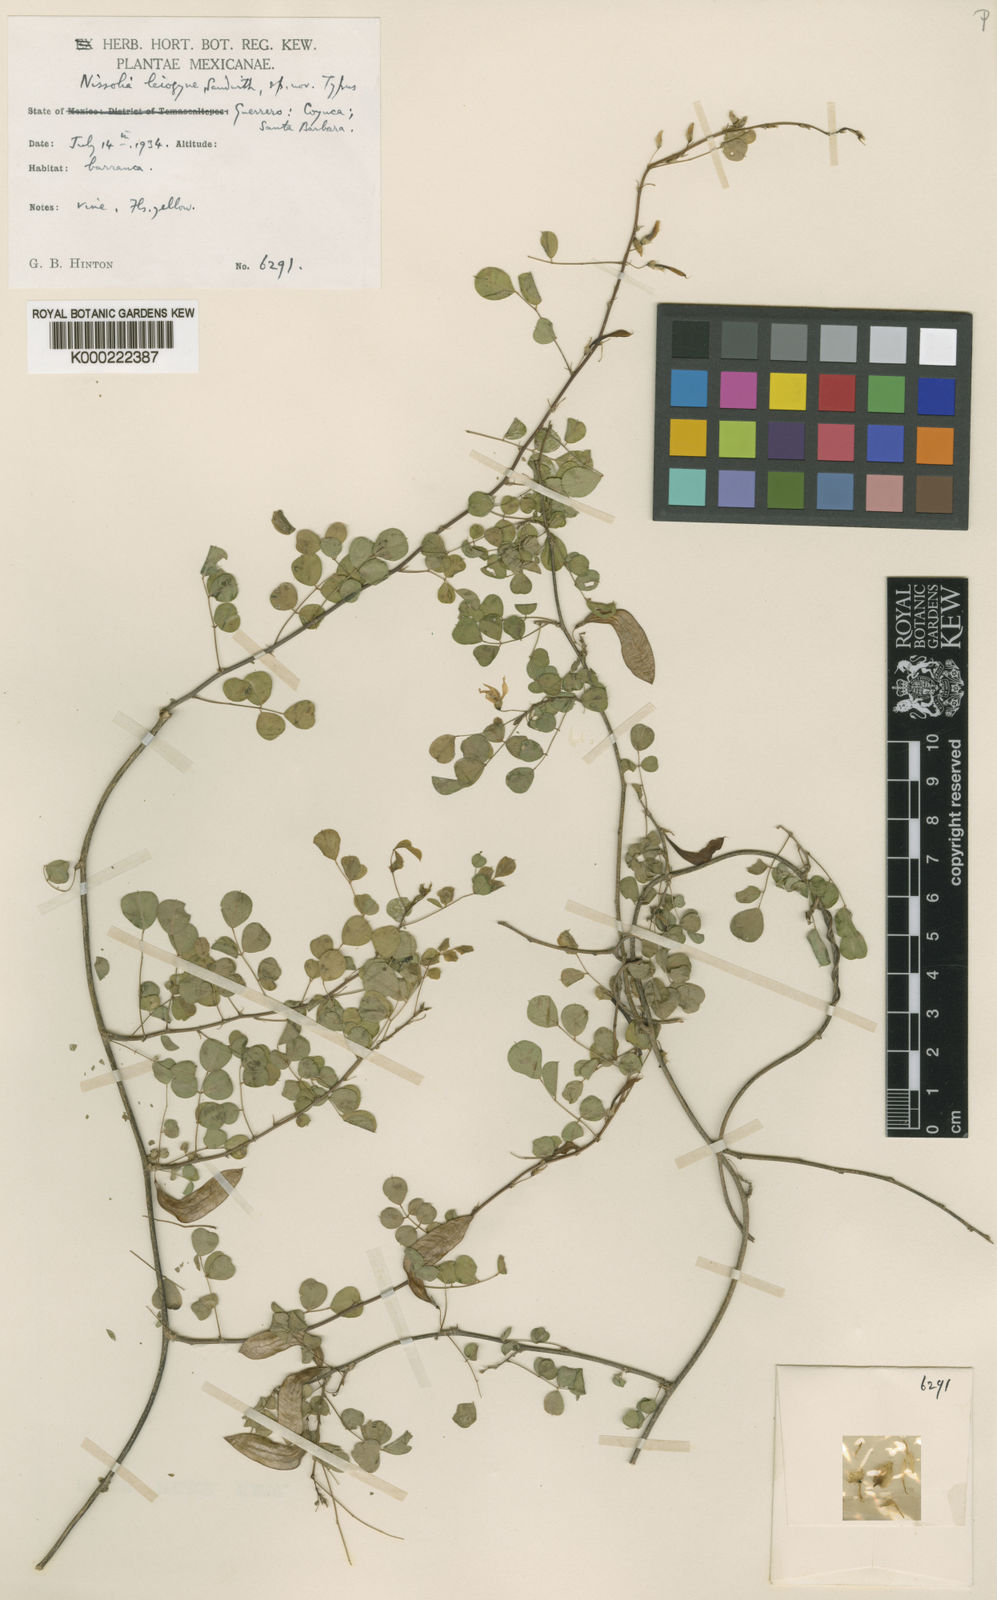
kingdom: Plantae
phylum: Tracheophyta
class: Magnoliopsida
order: Fabales
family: Fabaceae
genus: Nissolia
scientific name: Nissolia leiogyne
